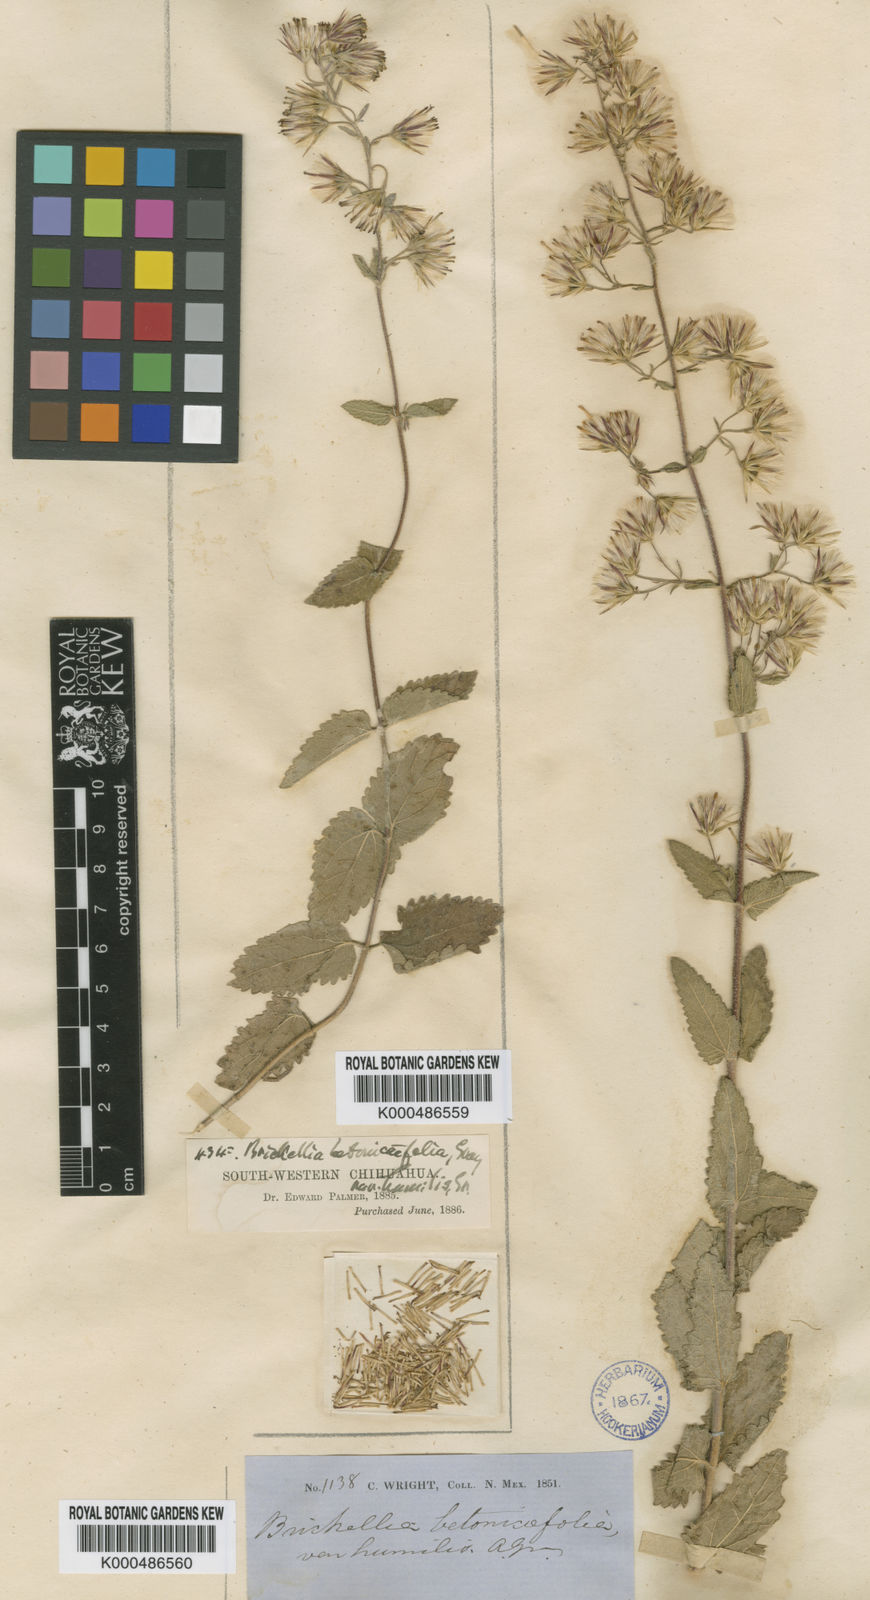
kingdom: Plantae
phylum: Tracheophyta
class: Magnoliopsida
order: Asterales
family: Asteraceae
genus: Brickellia
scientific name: Brickellia betonicifolia
